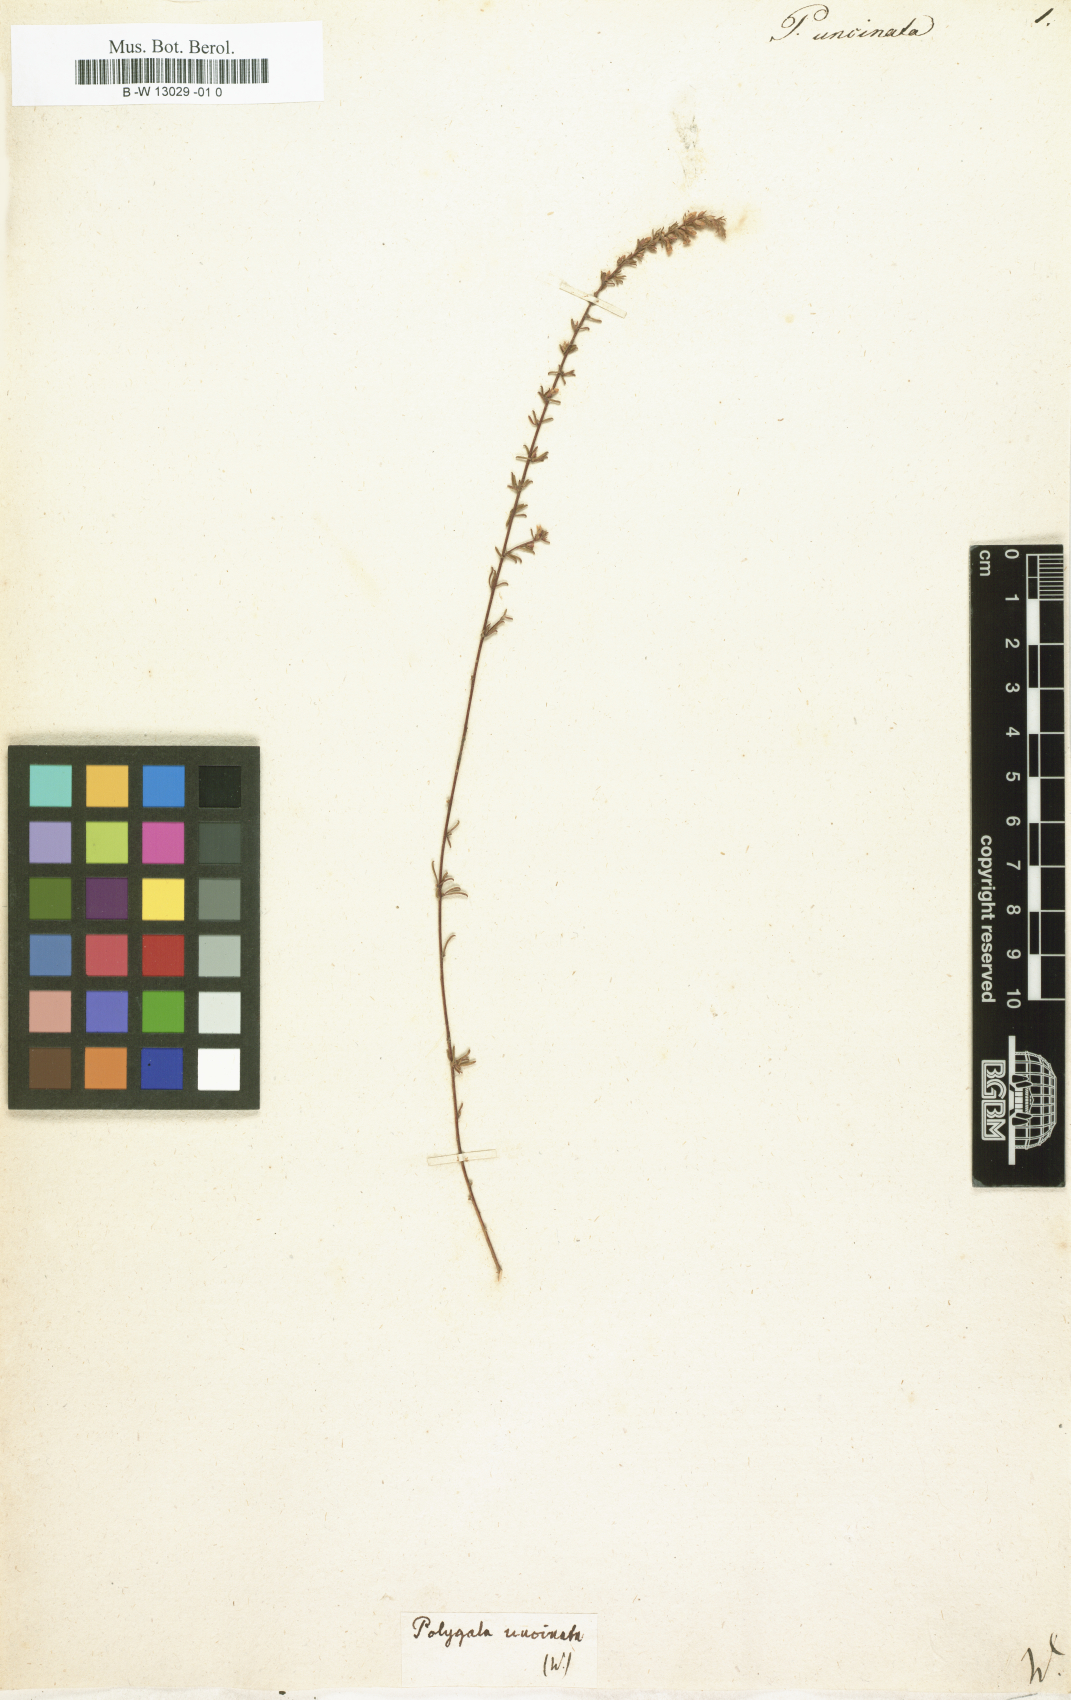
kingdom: Plantae
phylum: Tracheophyta
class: Magnoliopsida
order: Fabales
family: Polygalaceae
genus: Polygala
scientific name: Polygala uncinata
